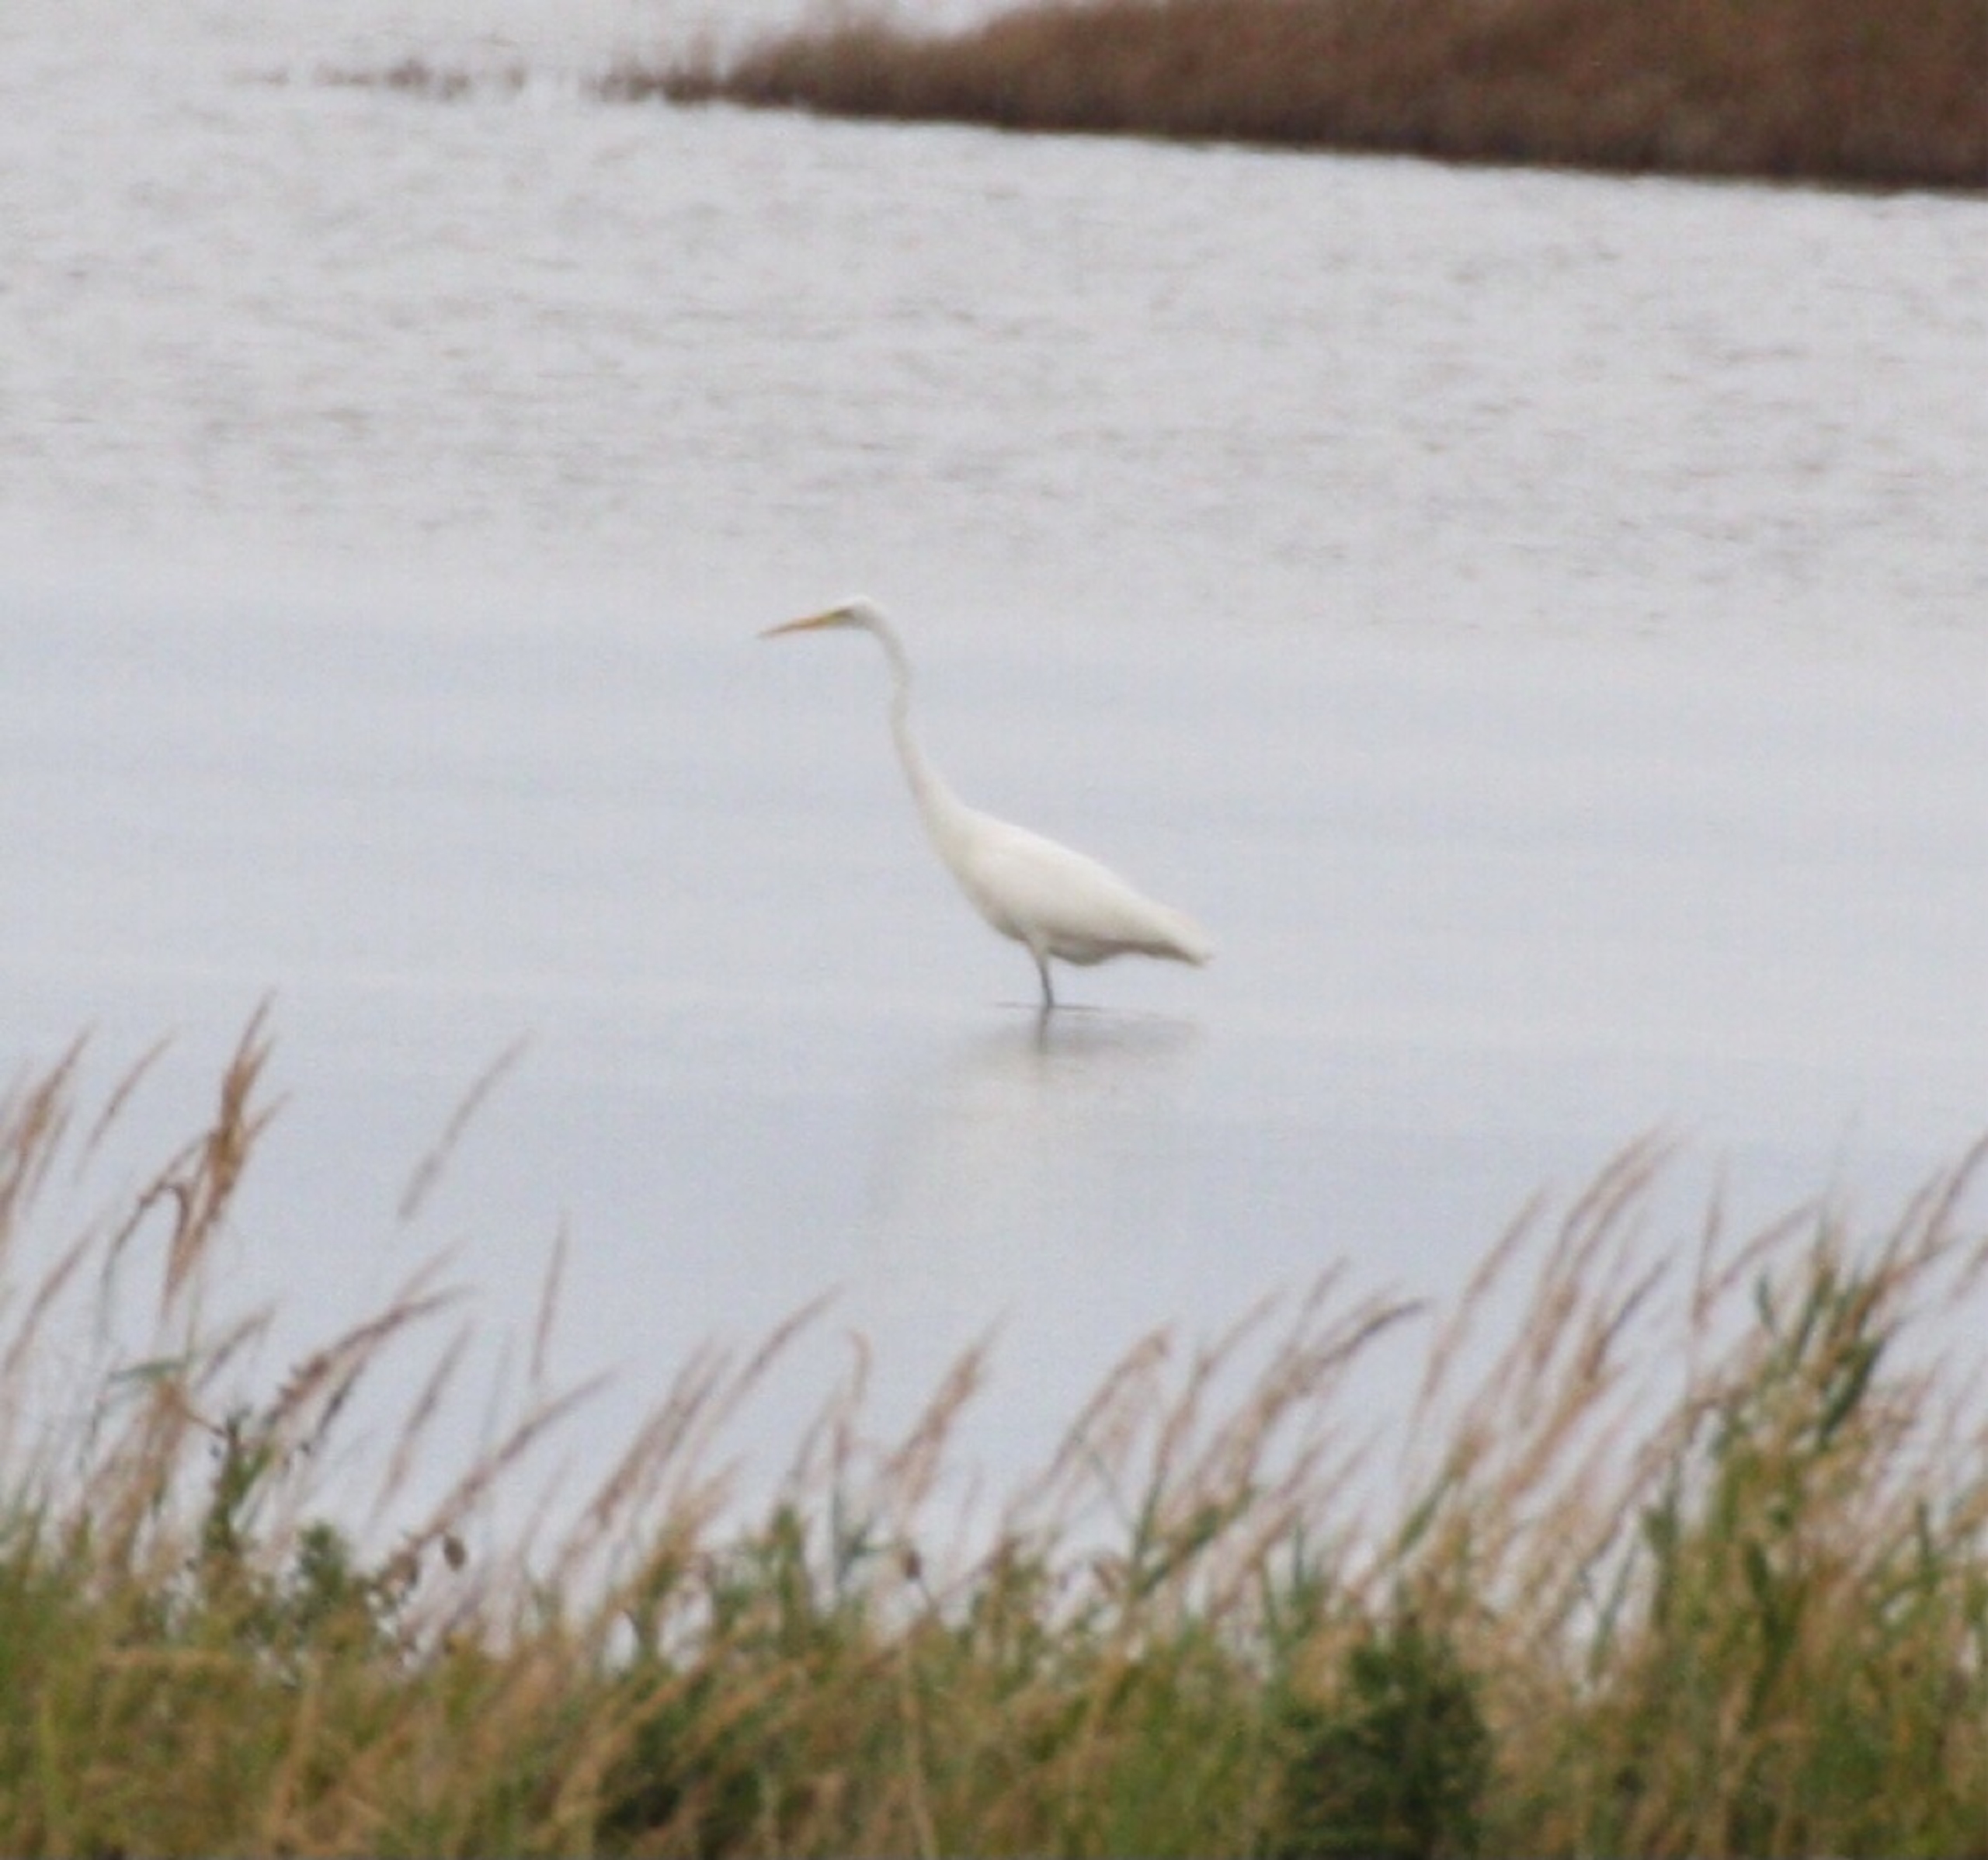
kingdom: Animalia
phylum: Chordata
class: Aves
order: Pelecaniformes
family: Ardeidae
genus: Ardea
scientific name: Ardea alba
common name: Sølvhejre
